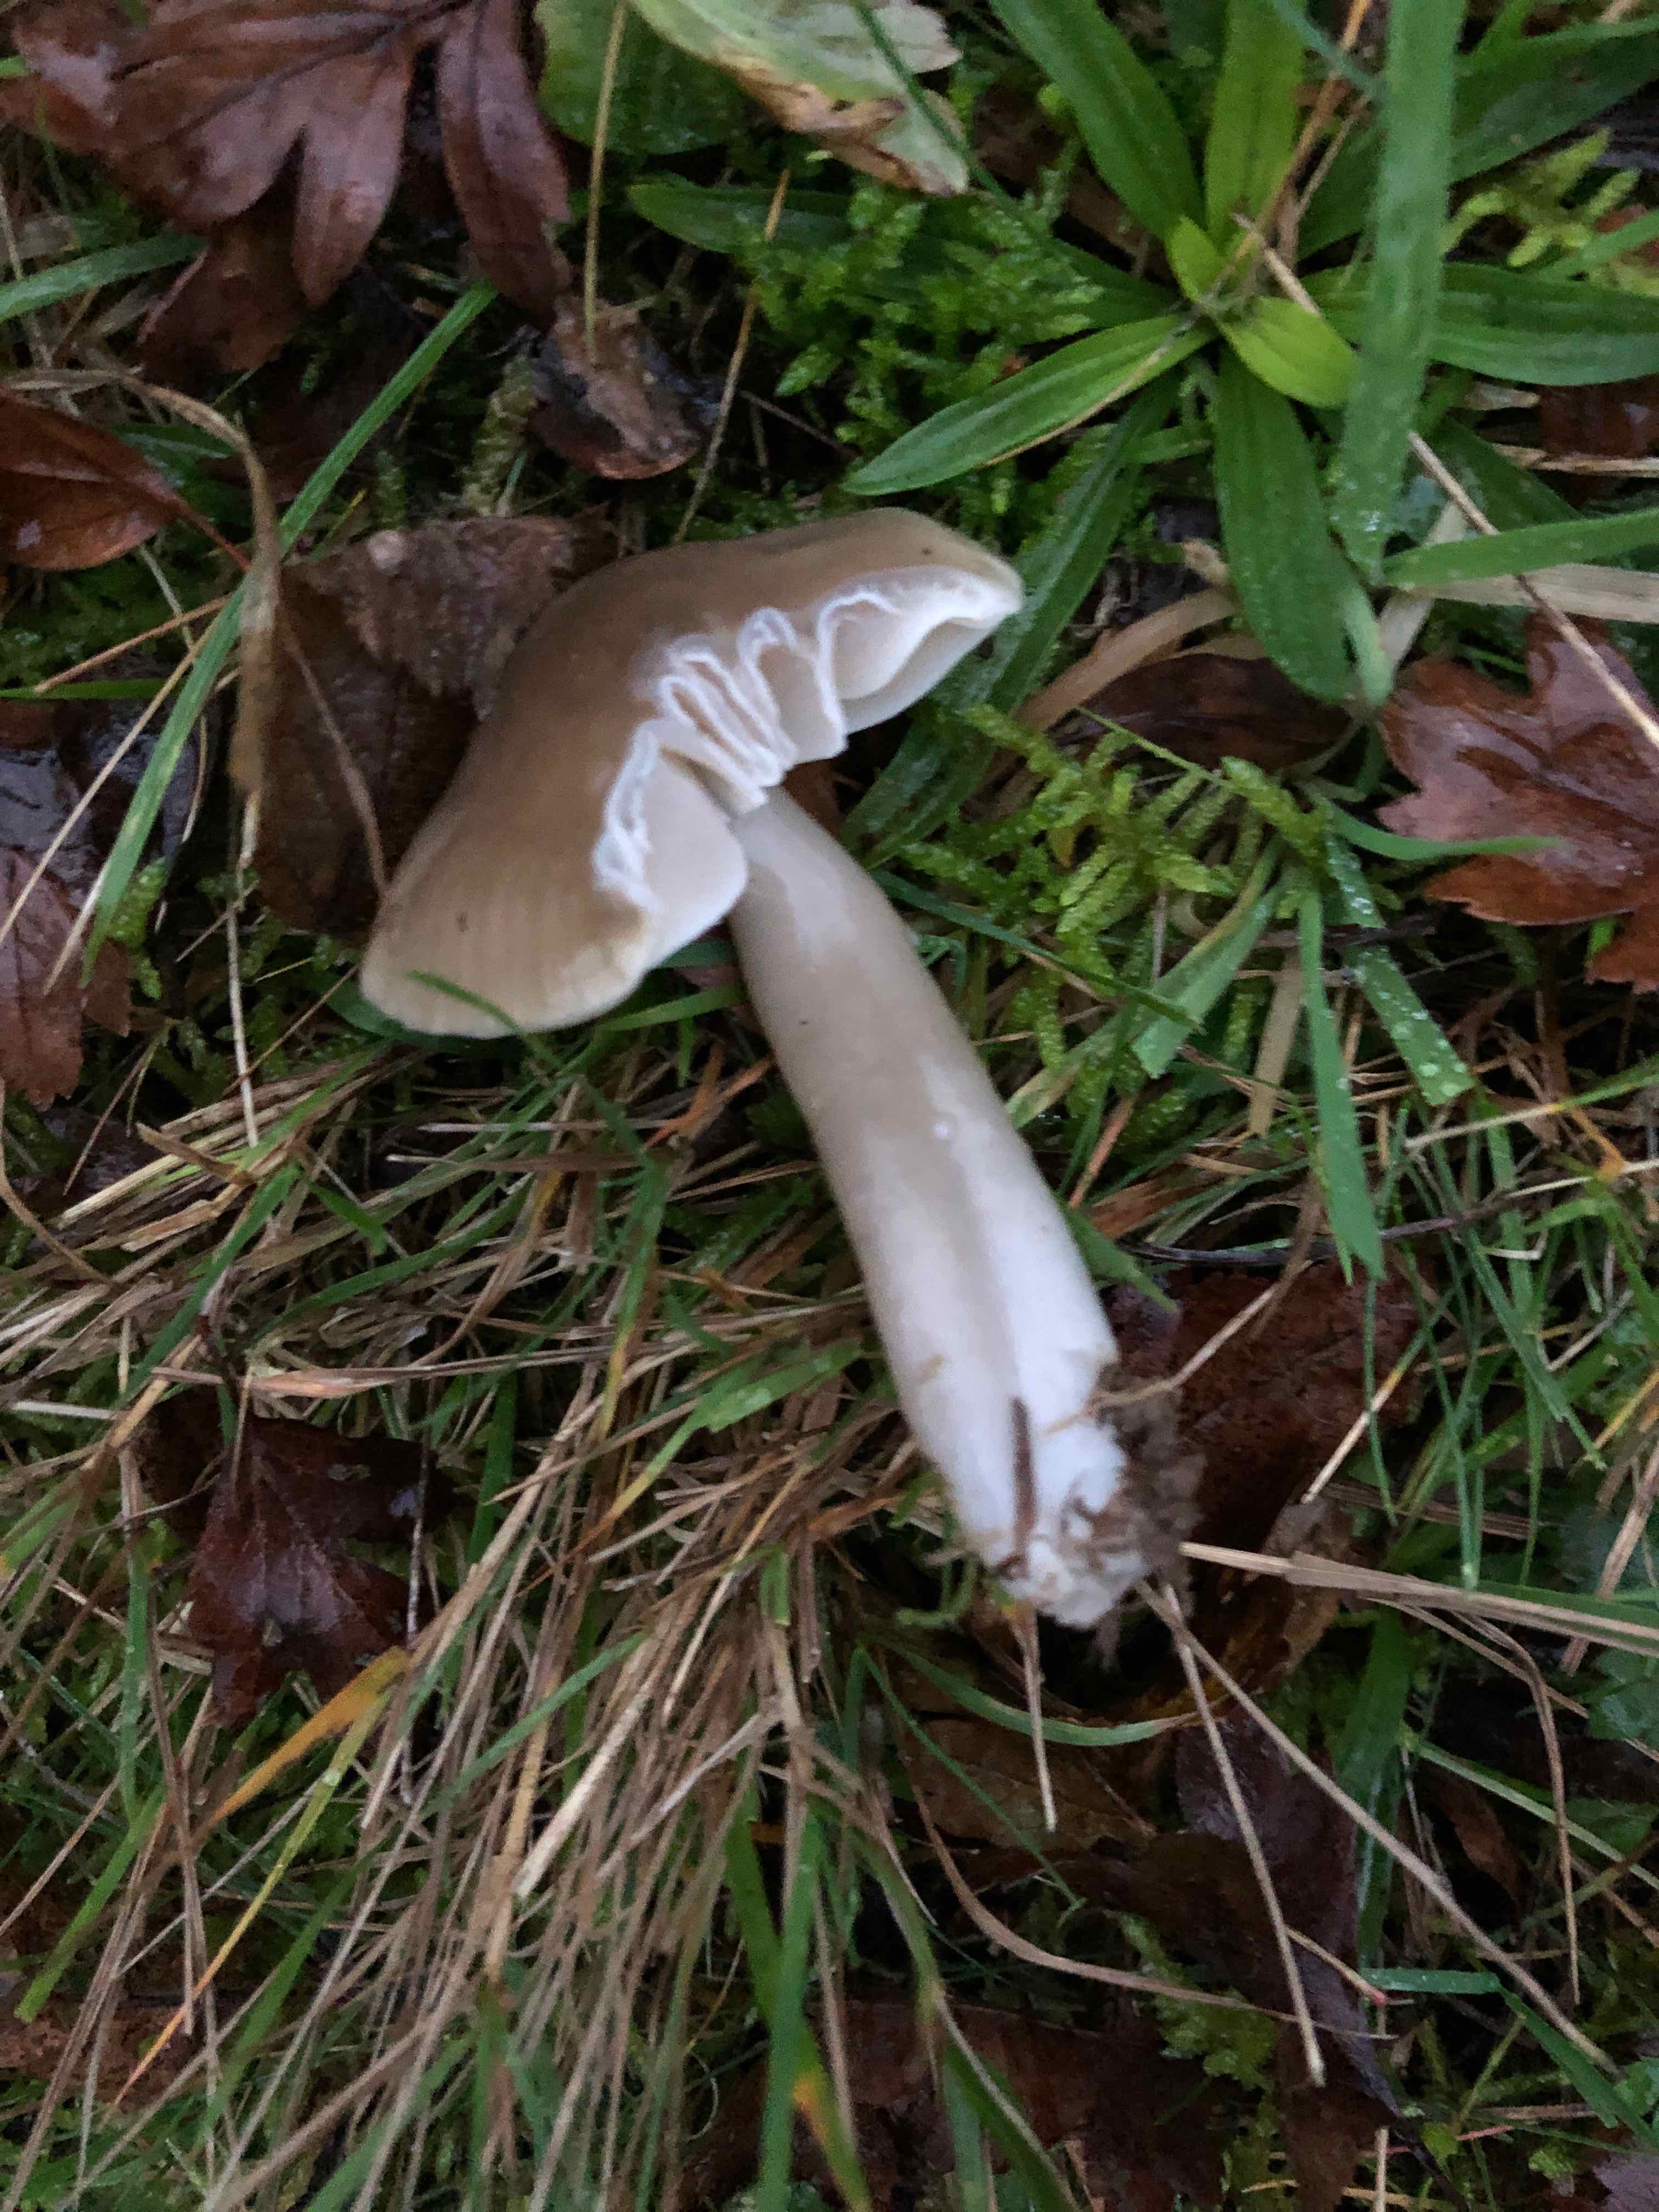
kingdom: Fungi
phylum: Basidiomycota
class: Agaricomycetes
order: Agaricales
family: Hygrophoraceae
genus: Gliophorus
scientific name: Gliophorus irrigatus
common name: slimet vokshat
